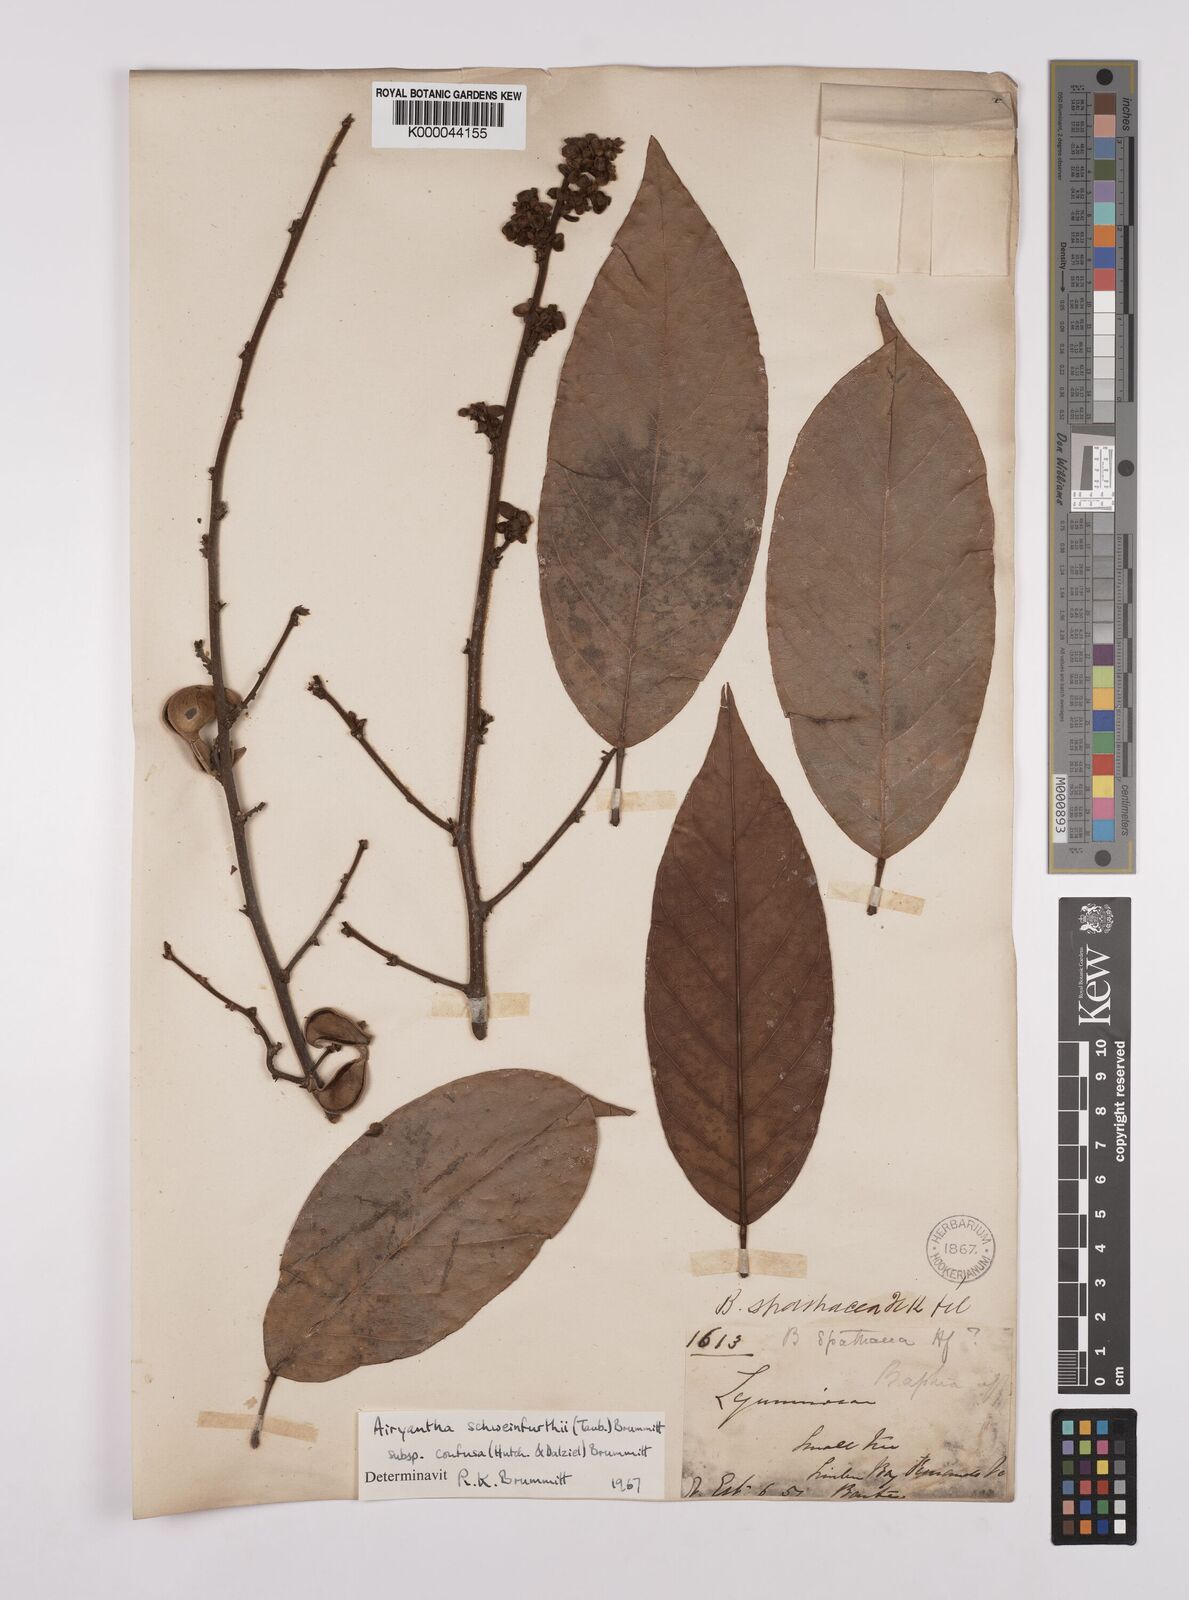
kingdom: Plantae
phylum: Tracheophyta
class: Magnoliopsida
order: Fabales
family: Fabaceae
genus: Airyantha
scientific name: Airyantha schweinfurthii
